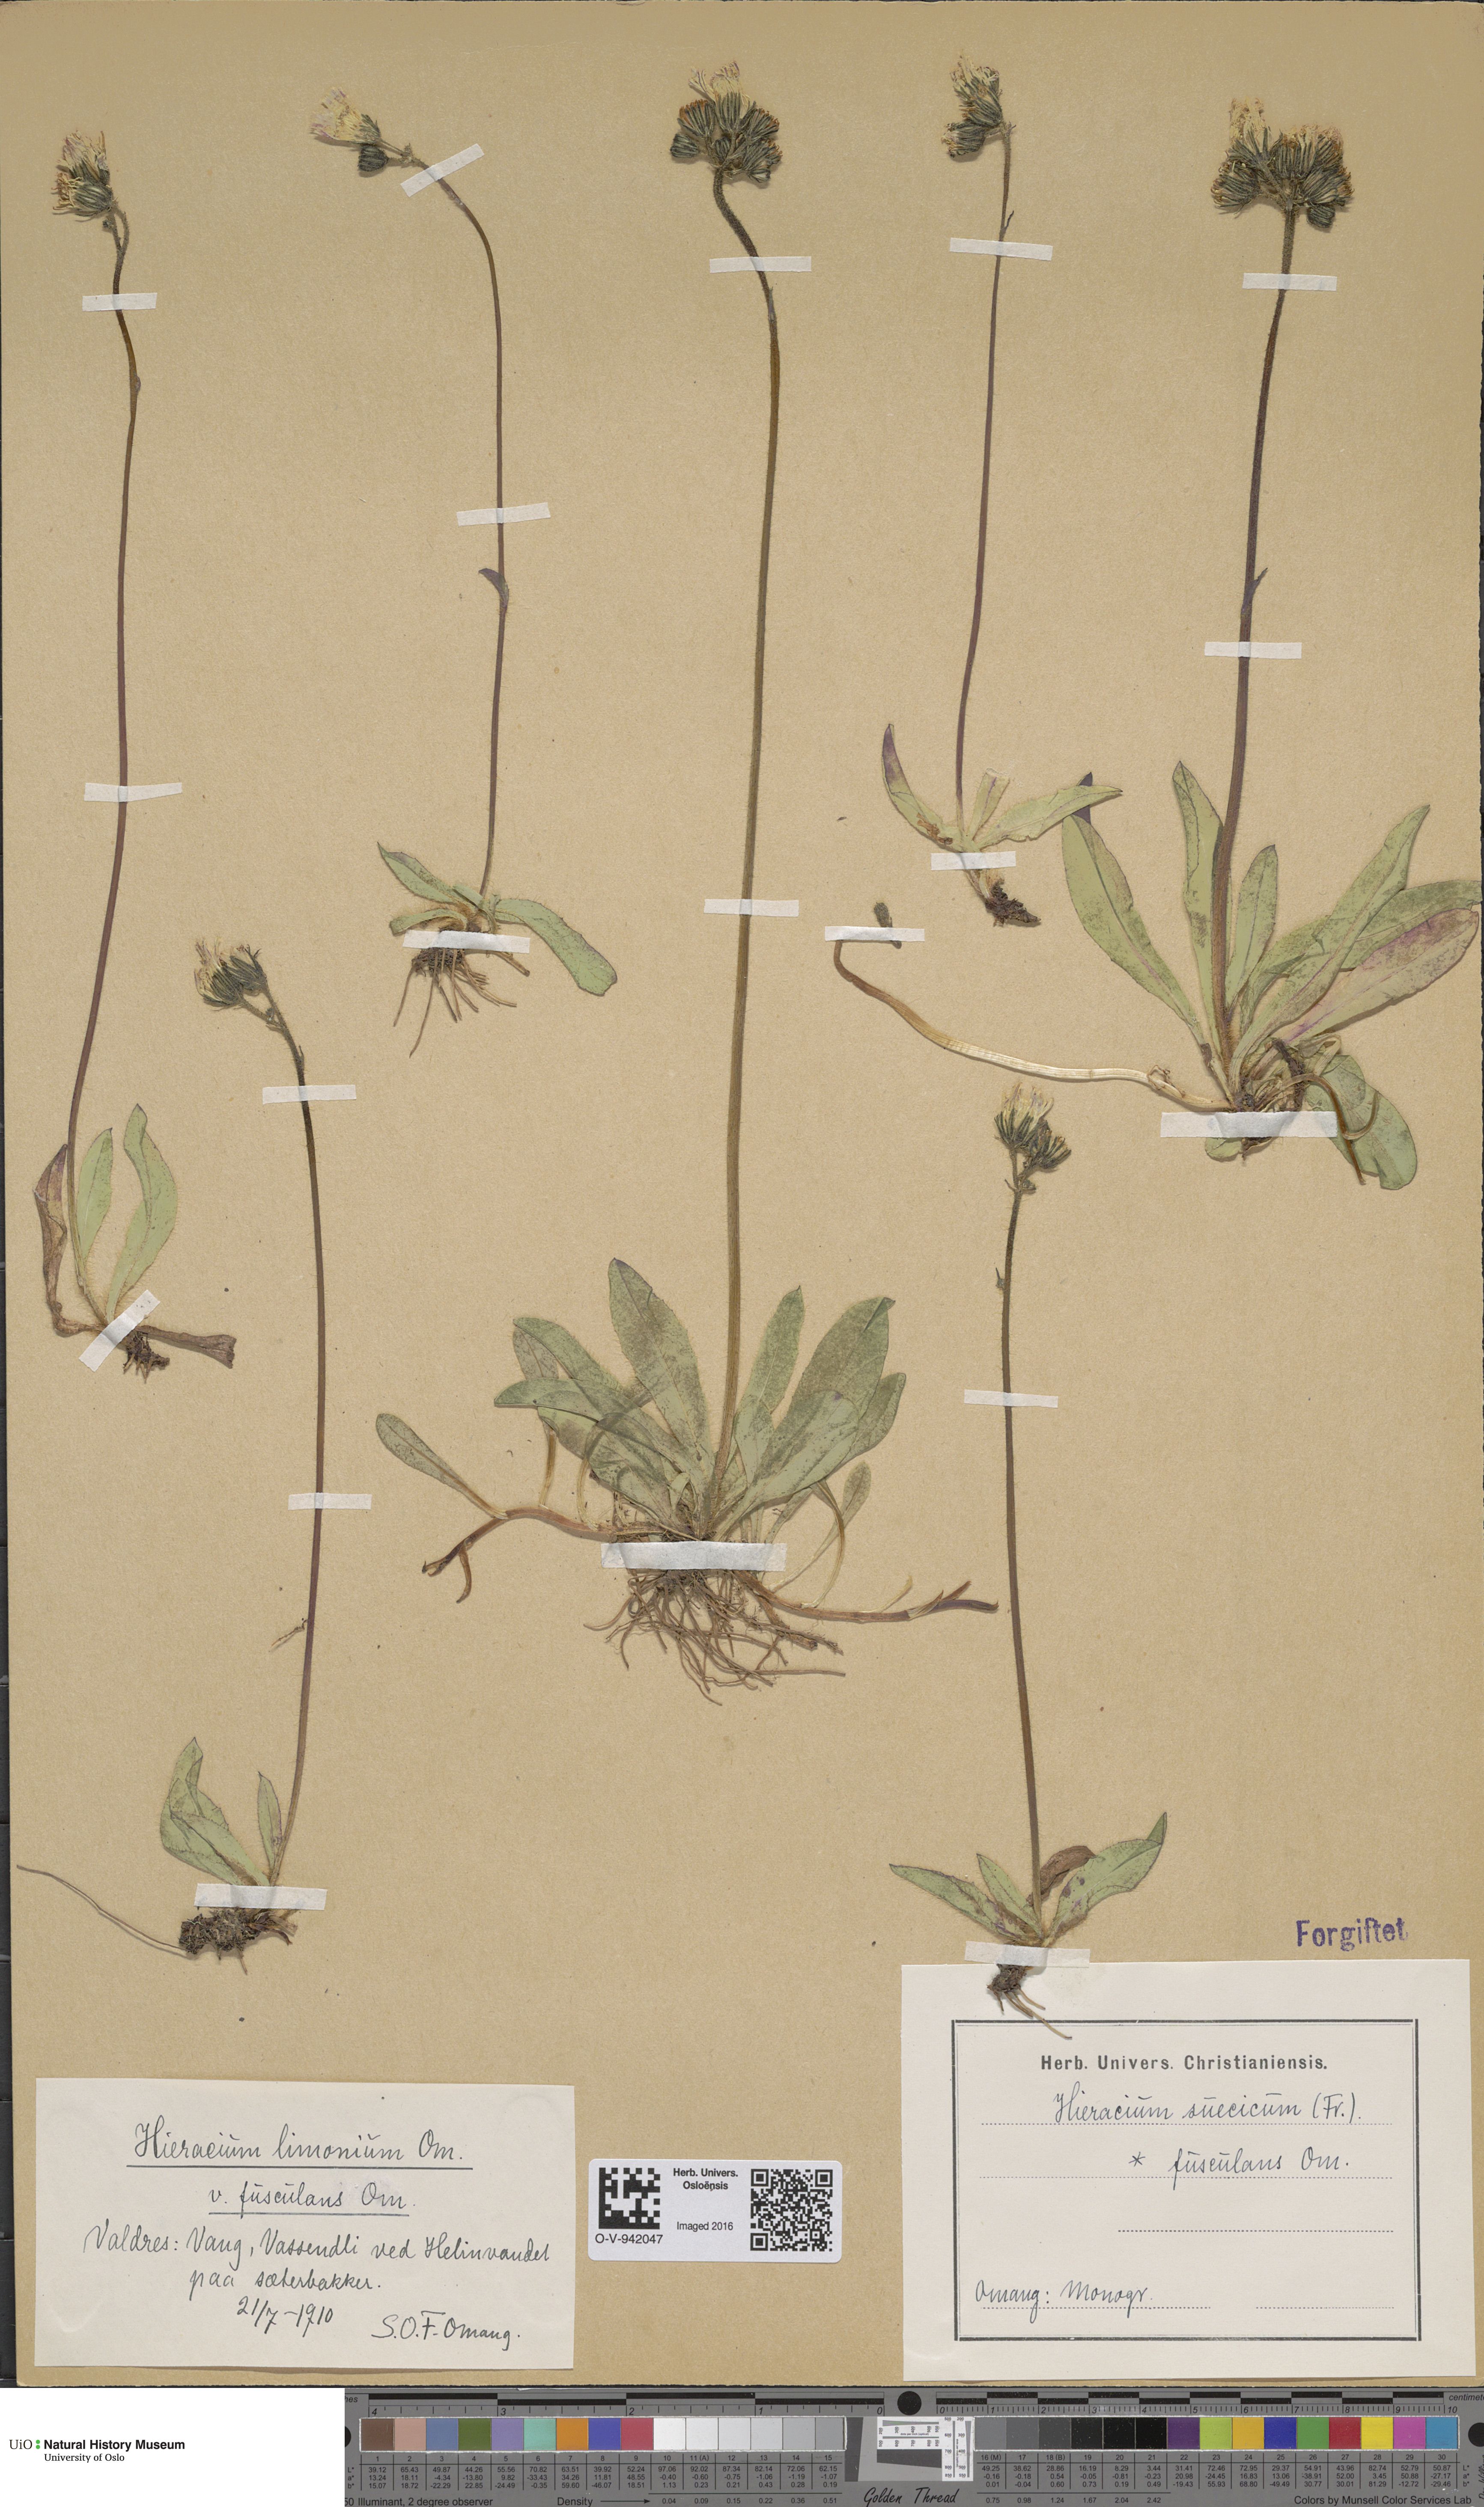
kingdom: Plantae
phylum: Tracheophyta
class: Magnoliopsida
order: Asterales
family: Asteraceae
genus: Pilosella
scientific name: Pilosella dubia
